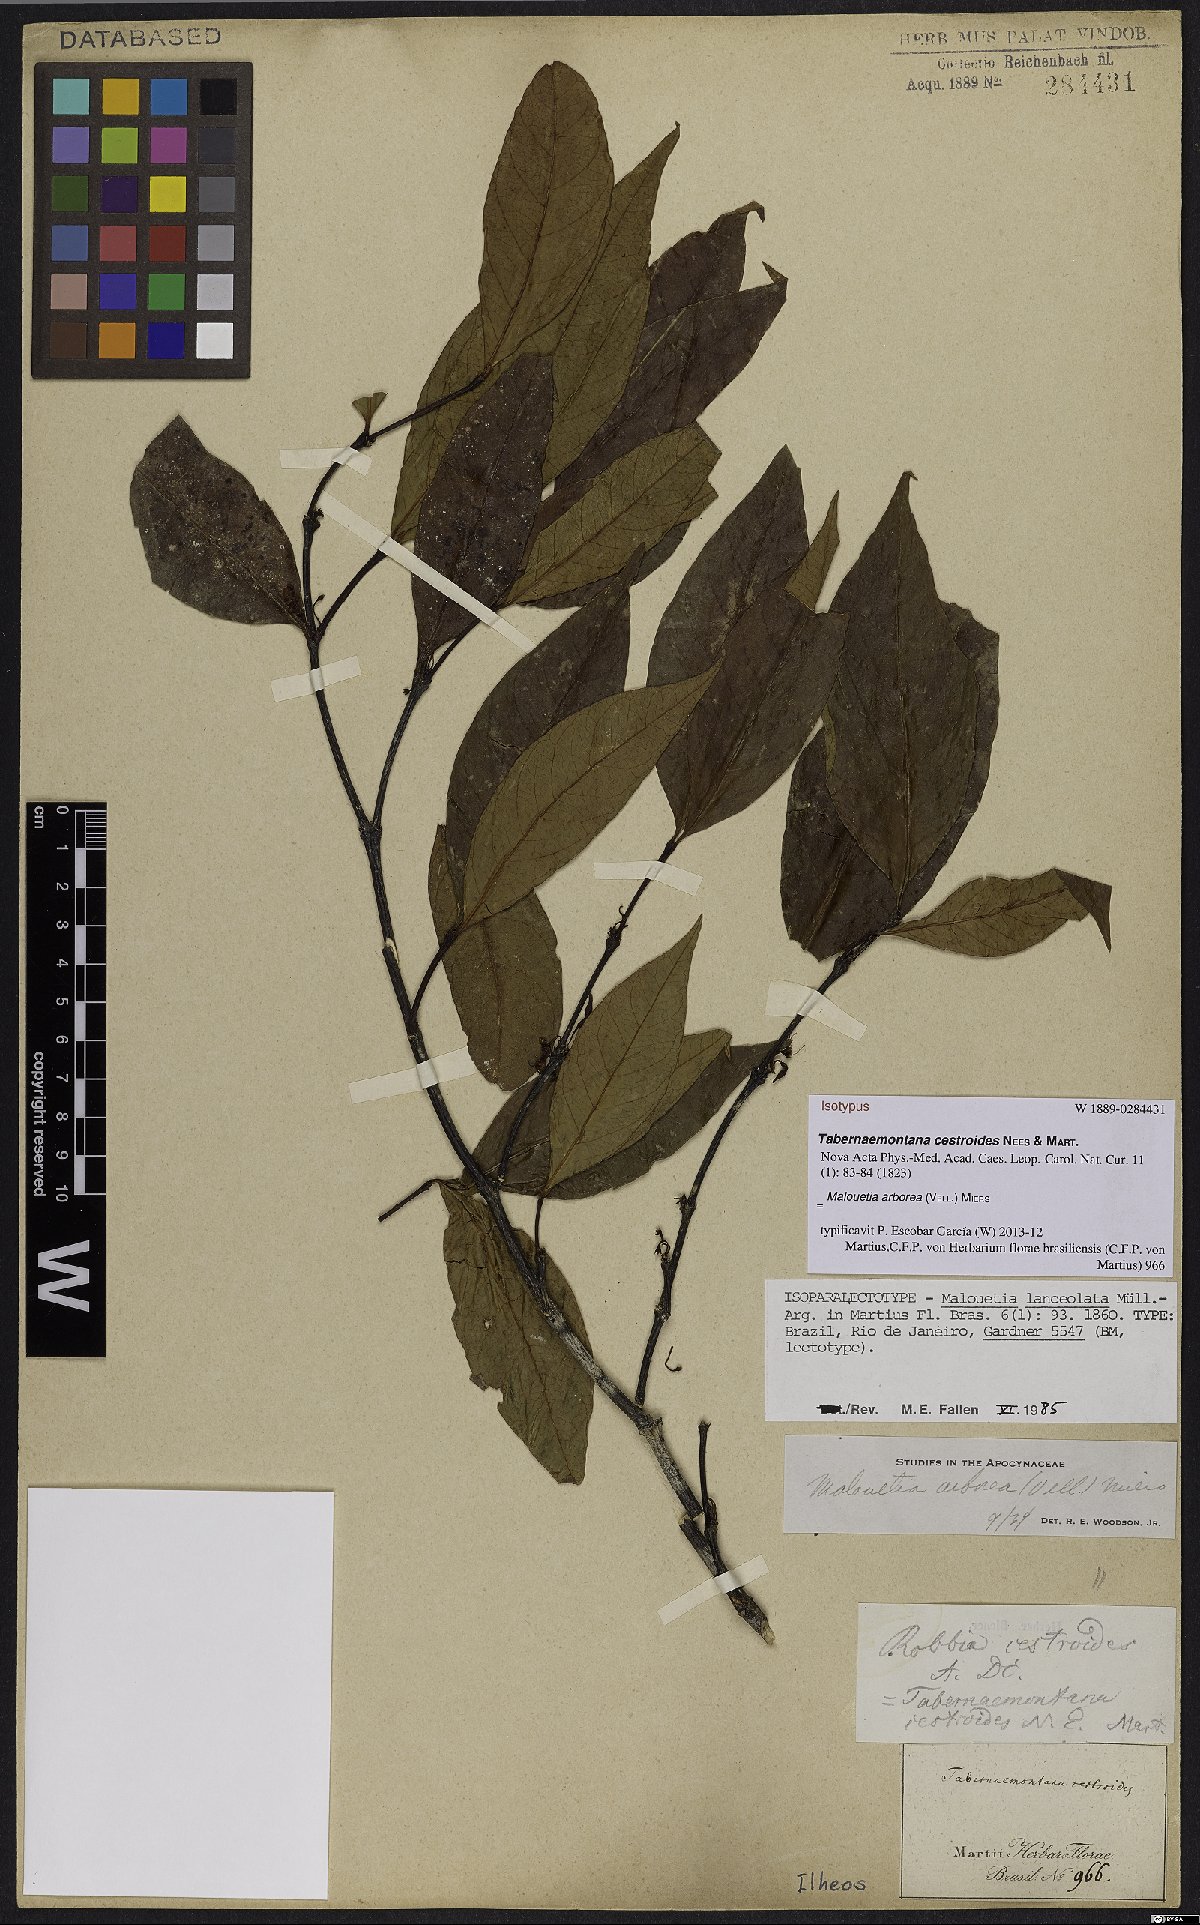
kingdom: Plantae
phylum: Tracheophyta
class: Magnoliopsida
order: Gentianales
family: Apocynaceae
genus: Malouetia
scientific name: Malouetia cestroides
